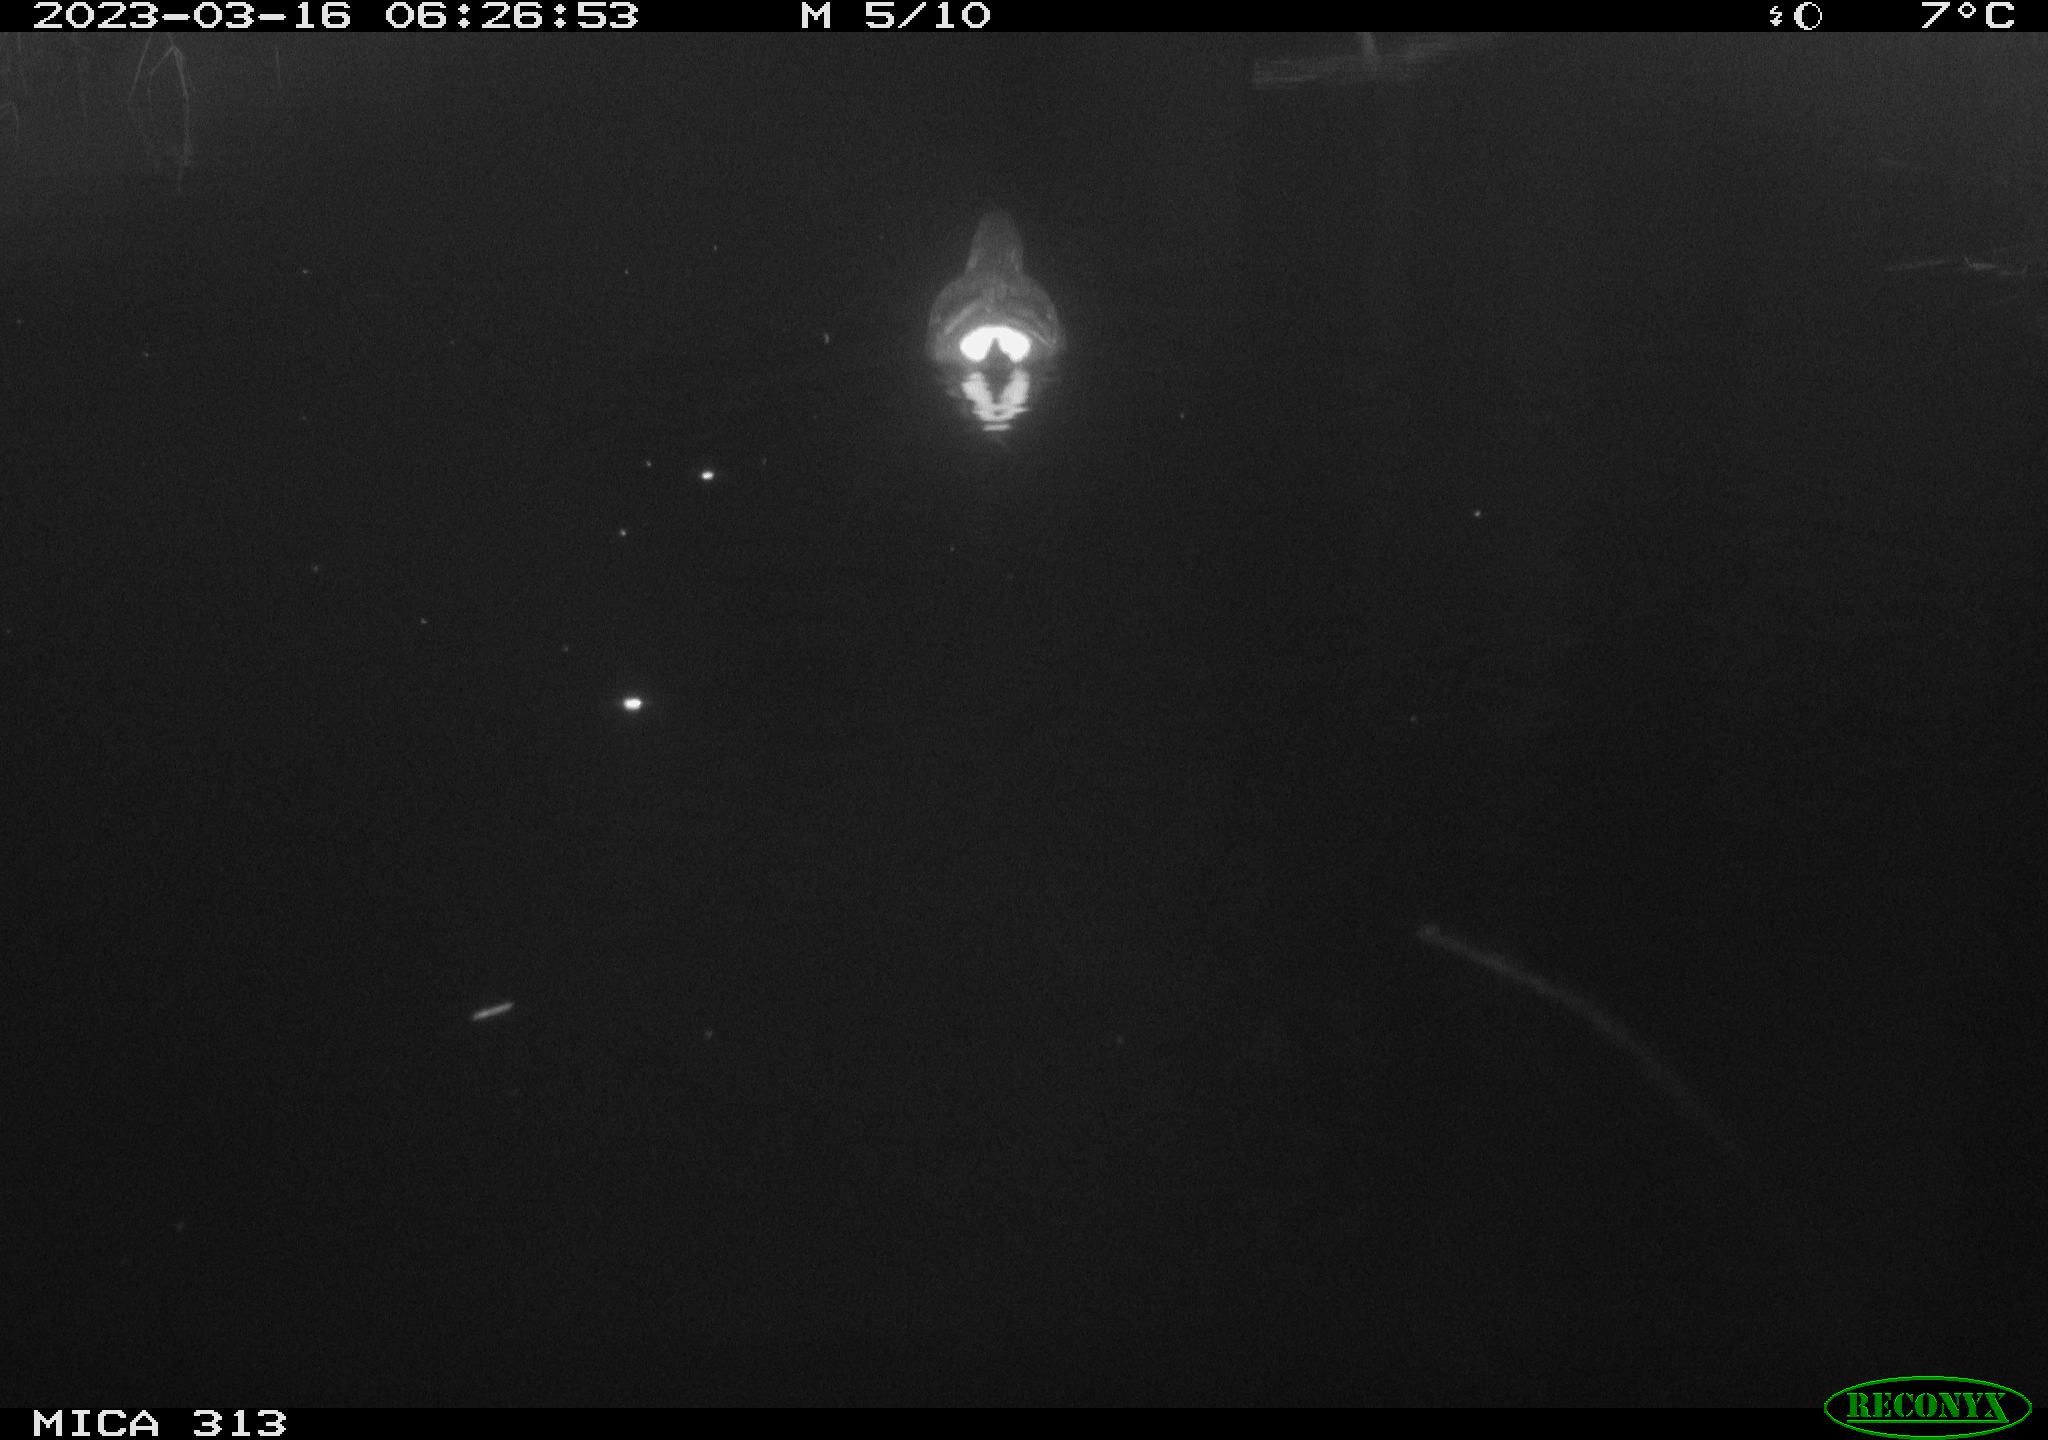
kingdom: Animalia
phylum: Chordata
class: Aves
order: Gruiformes
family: Rallidae
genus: Gallinula
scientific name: Gallinula chloropus
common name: Common moorhen
